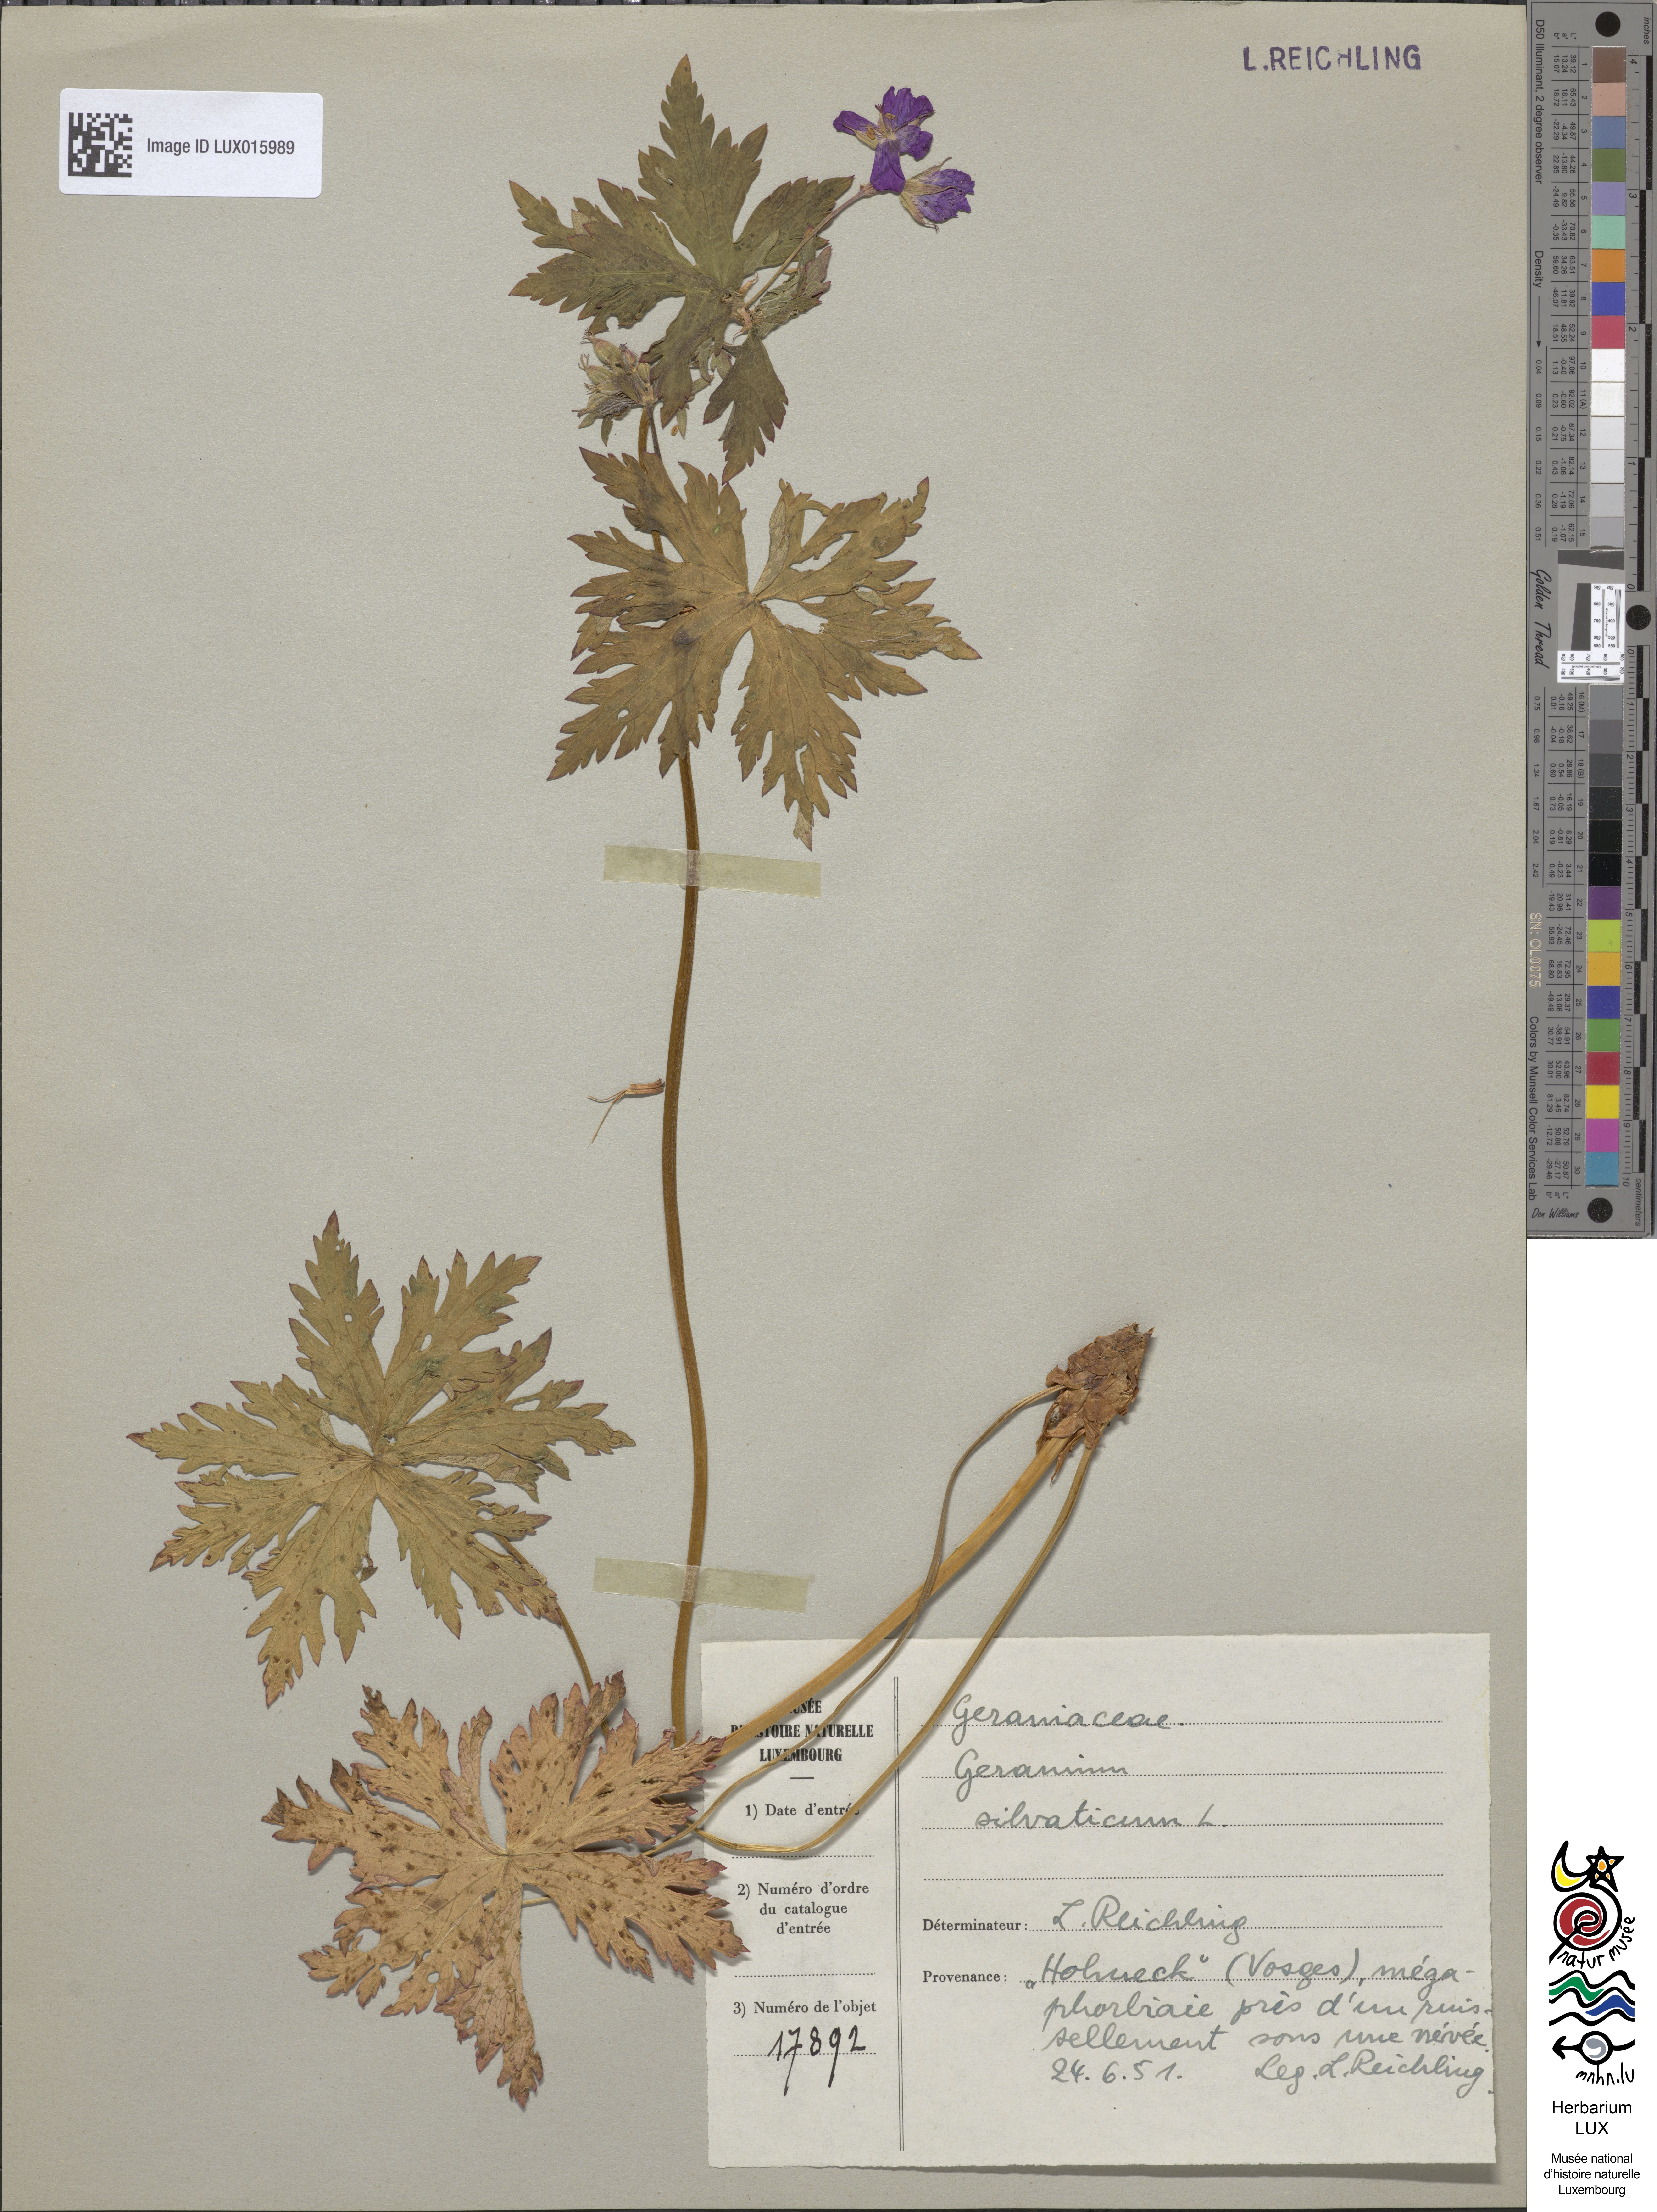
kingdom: Plantae
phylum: Tracheophyta
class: Magnoliopsida
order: Geraniales
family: Geraniaceae
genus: Geranium
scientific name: Geranium sylvaticum
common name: Wood crane's-bill
